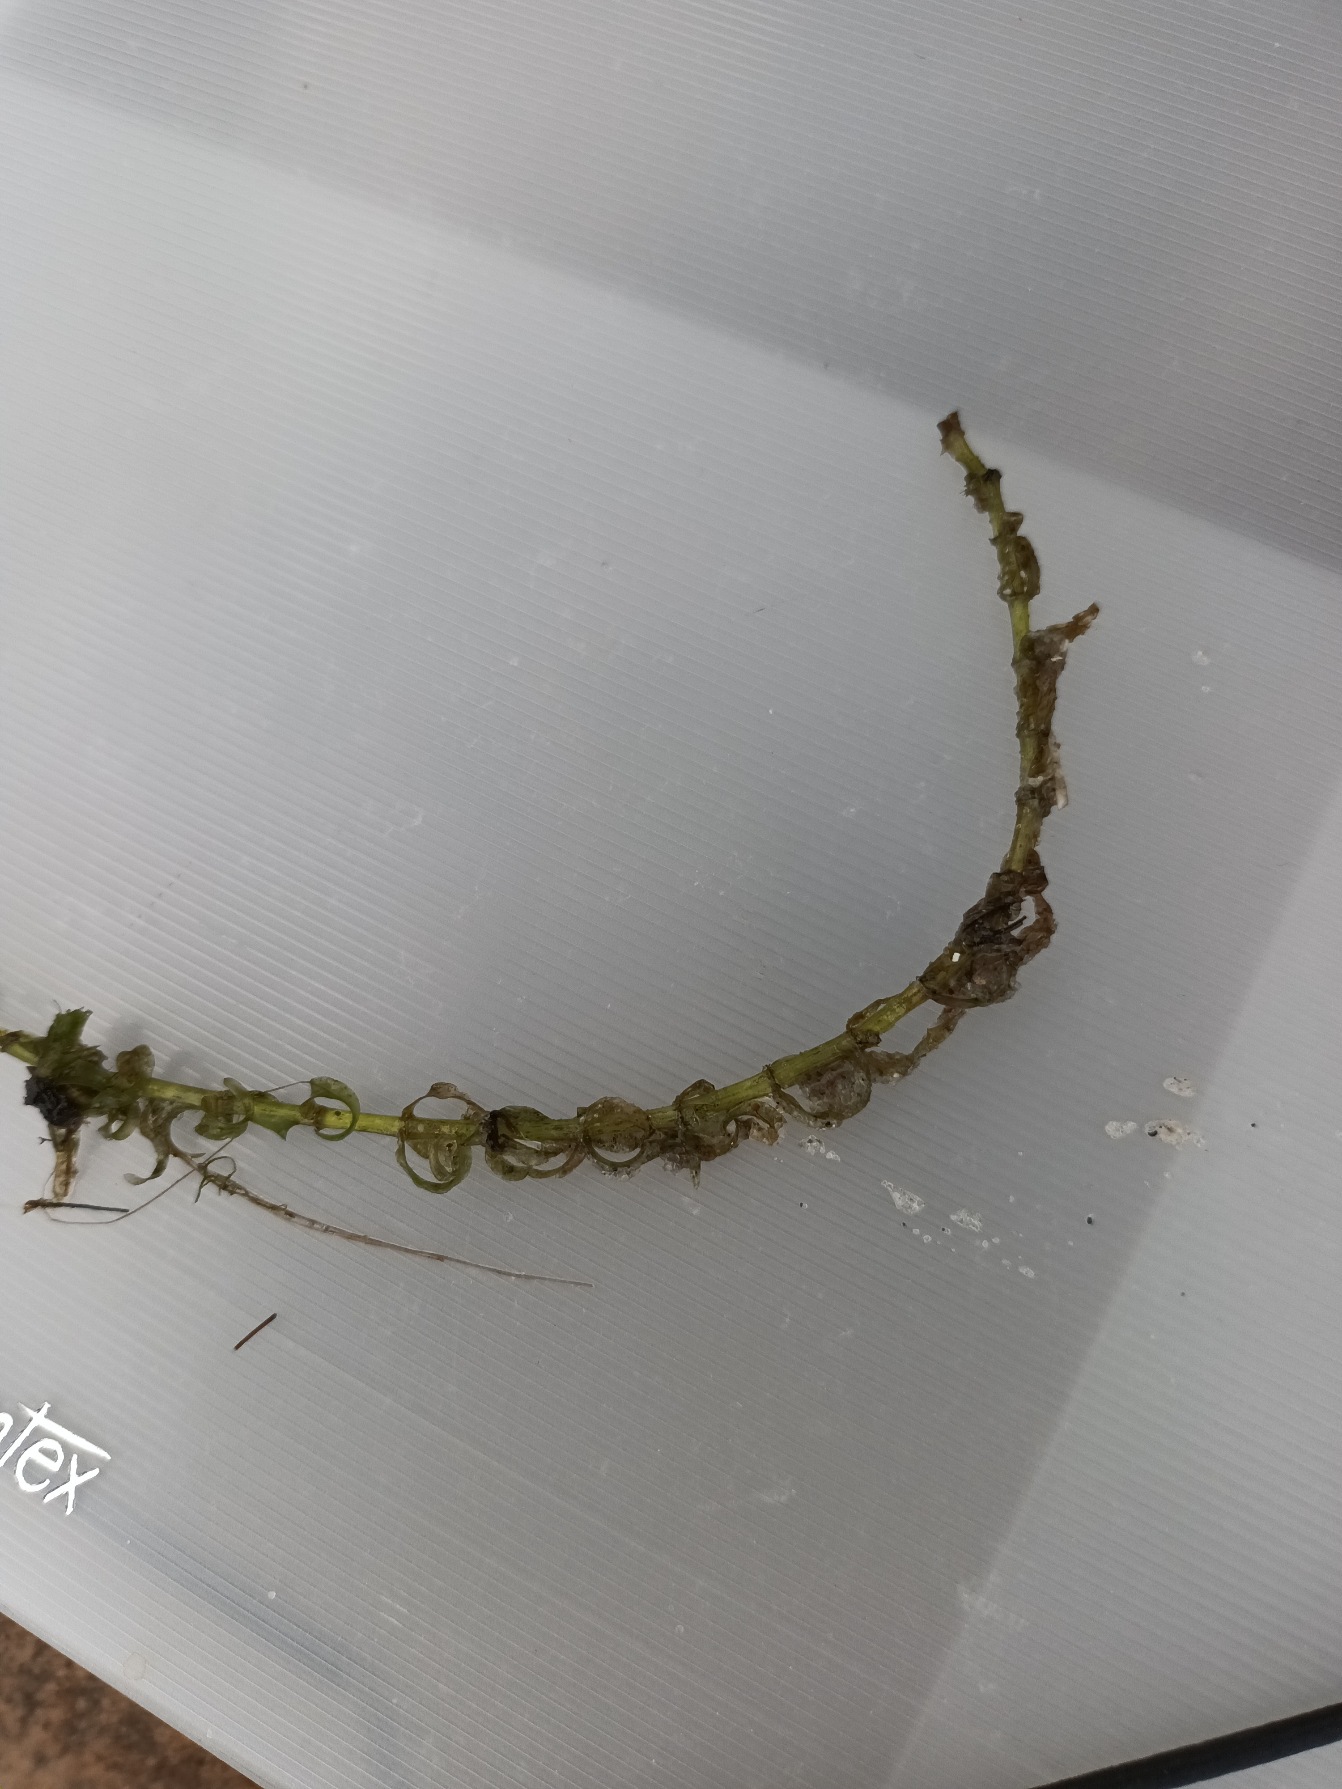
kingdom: Plantae
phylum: Tracheophyta
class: Liliopsida
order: Alismatales
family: Hydrocharitaceae
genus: Elodea
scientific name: Elodea nuttallii
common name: Smalbladet vandpest
